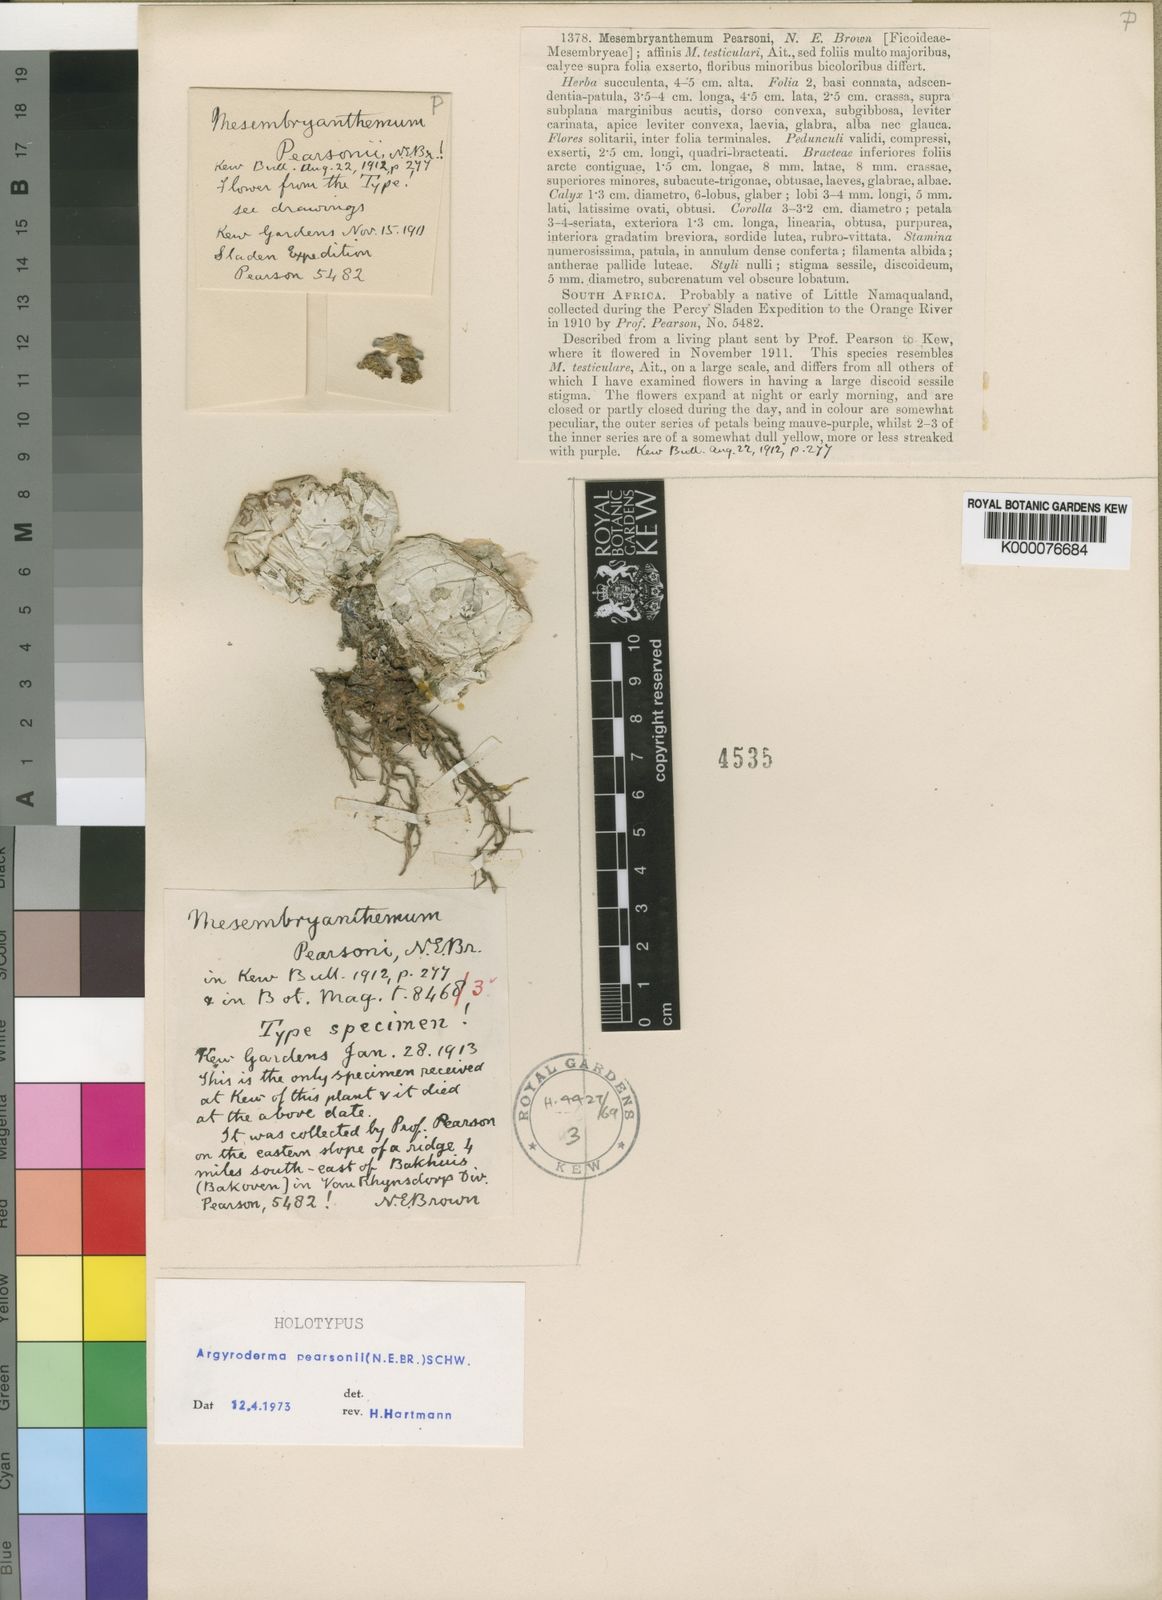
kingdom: Plantae
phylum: Tracheophyta
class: Magnoliopsida
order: Caryophyllales
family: Aizoaceae
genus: Argyroderma
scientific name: Argyroderma pearsonii
